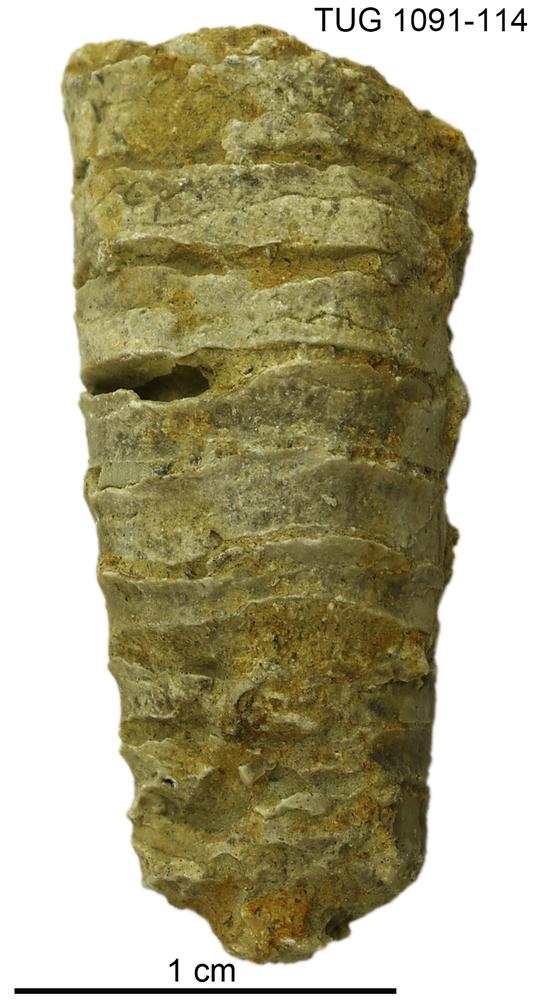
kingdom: Animalia
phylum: Mollusca
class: Cephalopoda
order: Nautilida
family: Nautilidae
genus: Dawsonoceras
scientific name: Dawsonoceras
